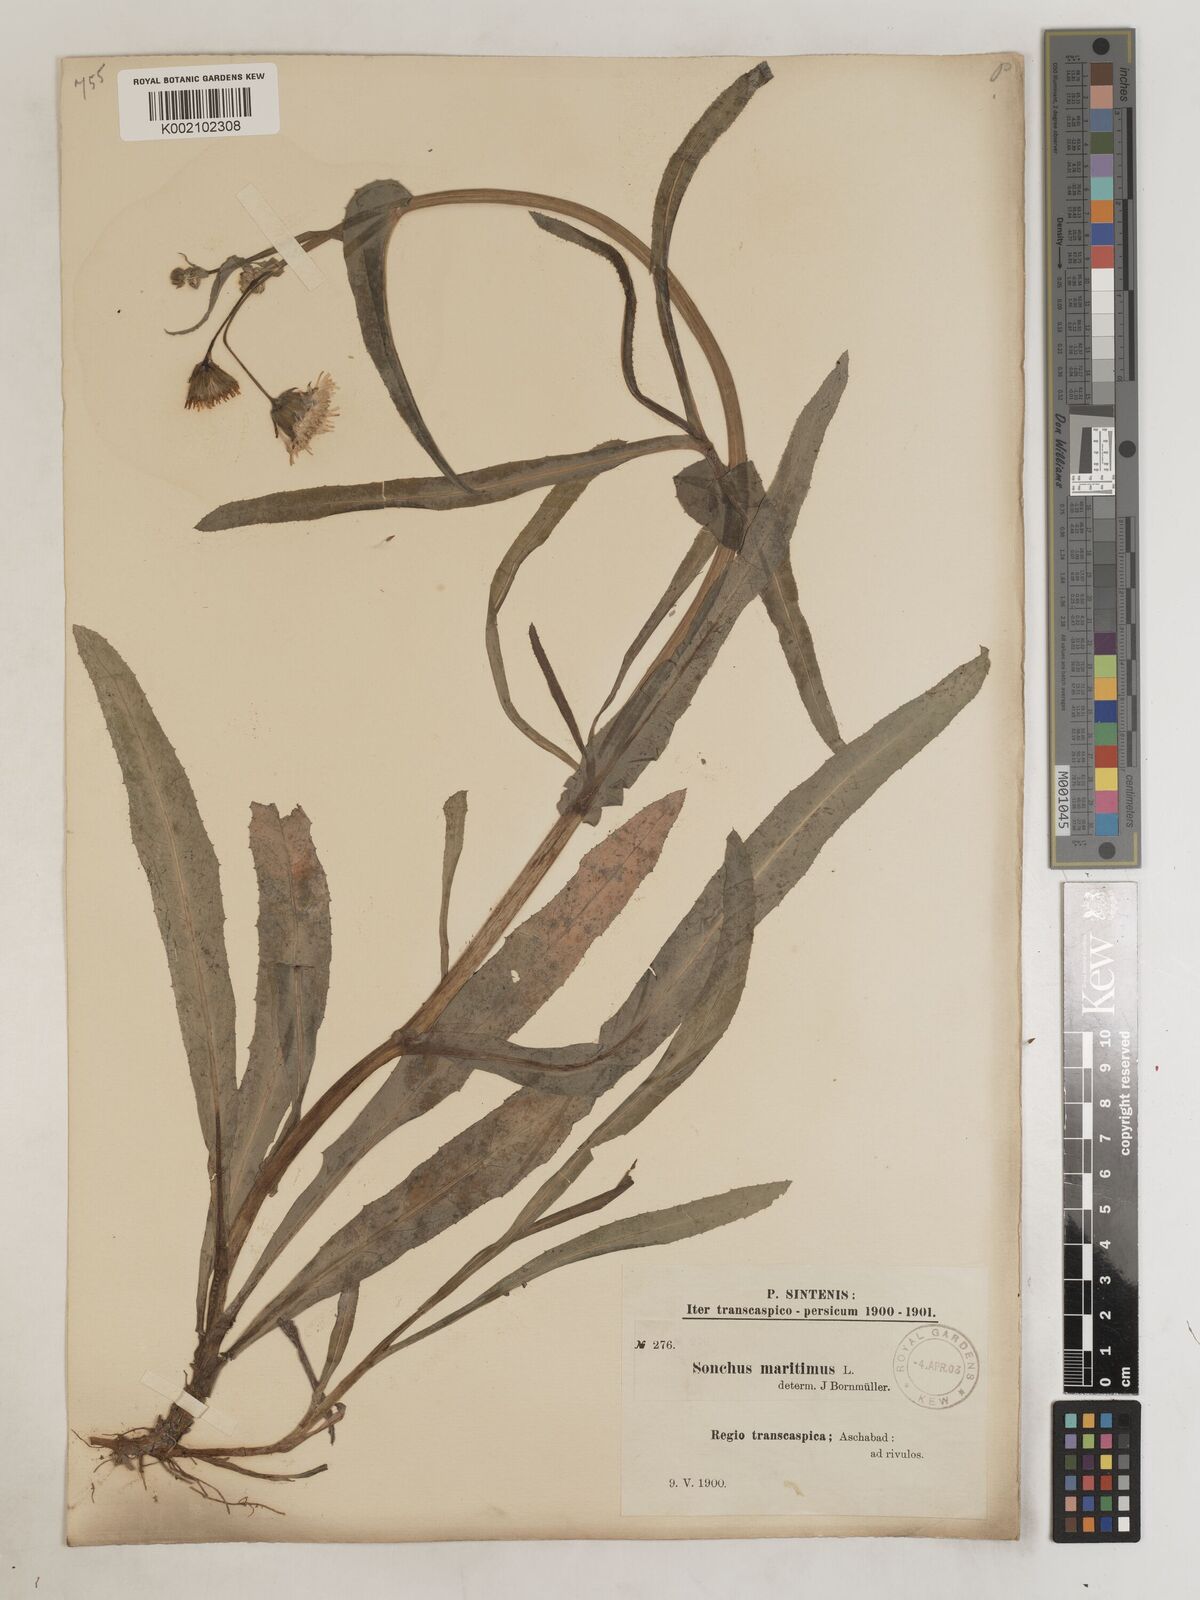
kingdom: Plantae
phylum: Tracheophyta
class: Magnoliopsida
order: Asterales
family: Asteraceae
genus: Sonchus
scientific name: Sonchus maritimus
